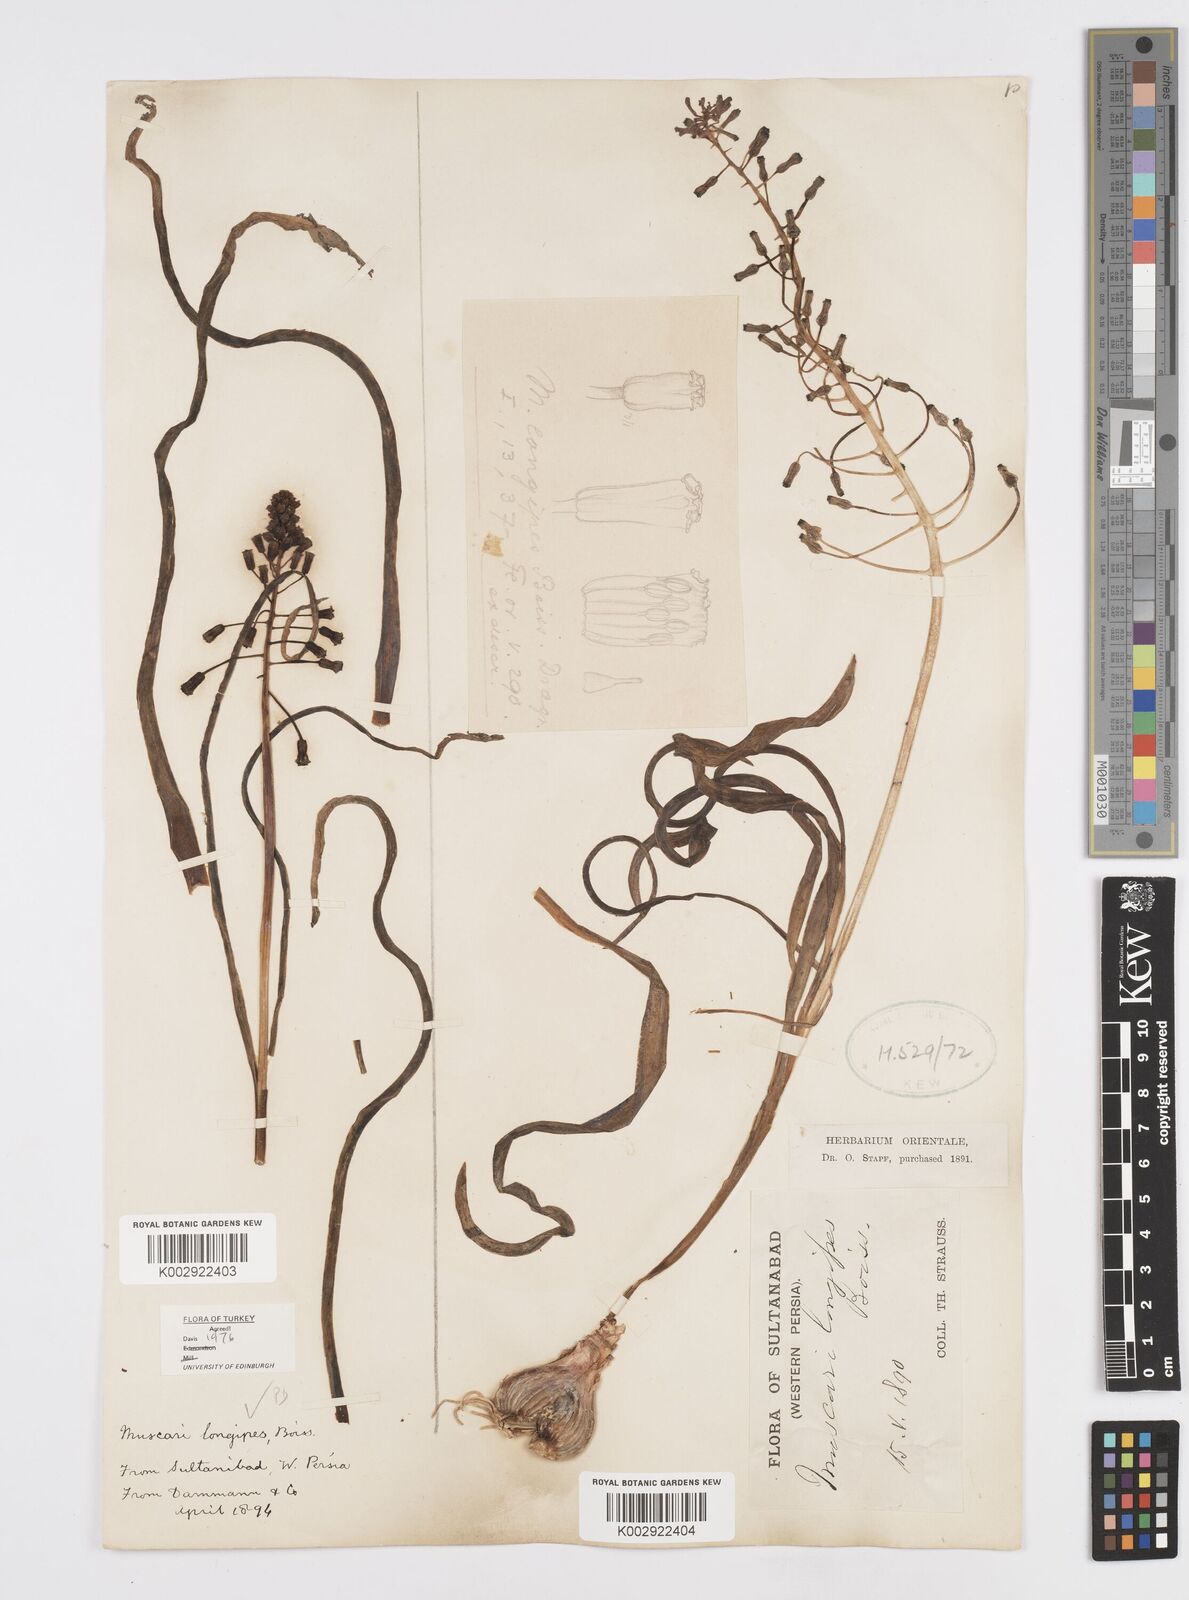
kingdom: Plantae
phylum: Tracheophyta
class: Liliopsida
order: Asparagales
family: Asparagaceae
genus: Muscari
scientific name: Muscari longipes
